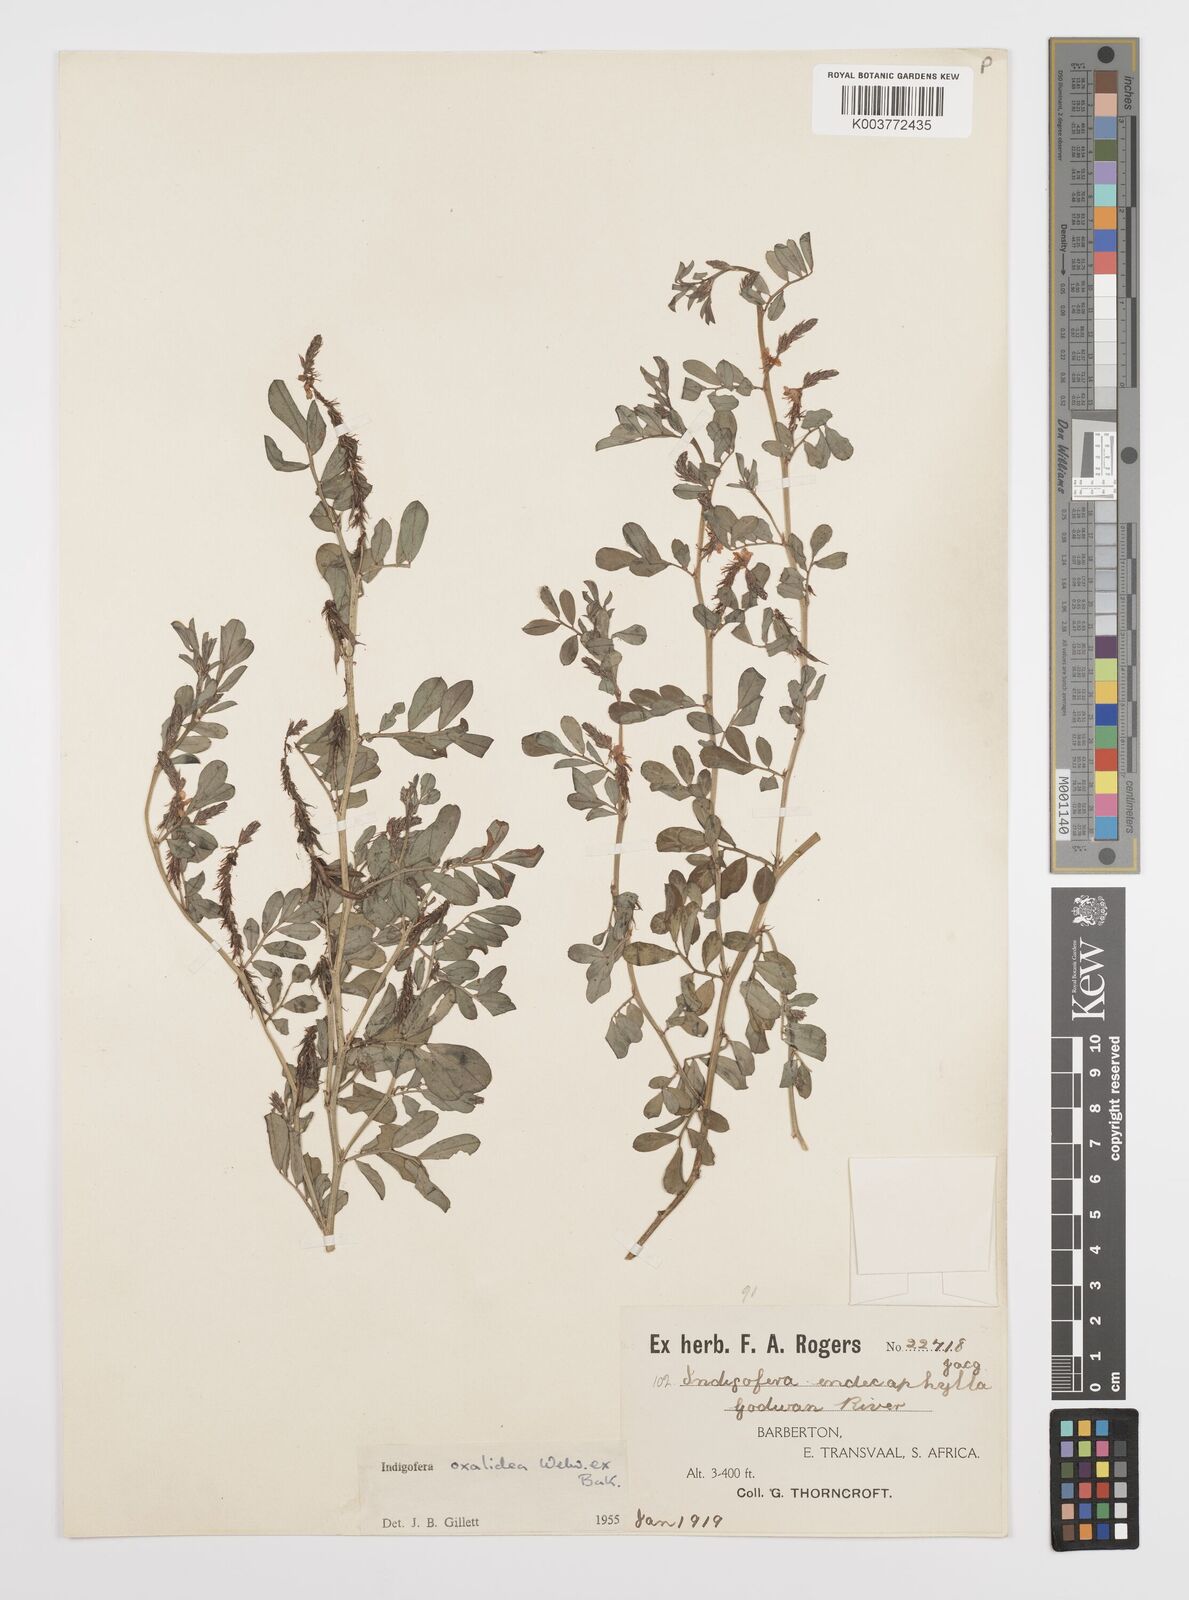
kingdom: Plantae
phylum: Tracheophyta
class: Magnoliopsida
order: Fabales
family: Fabaceae
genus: Indigofera
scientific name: Indigofera oxalidea
